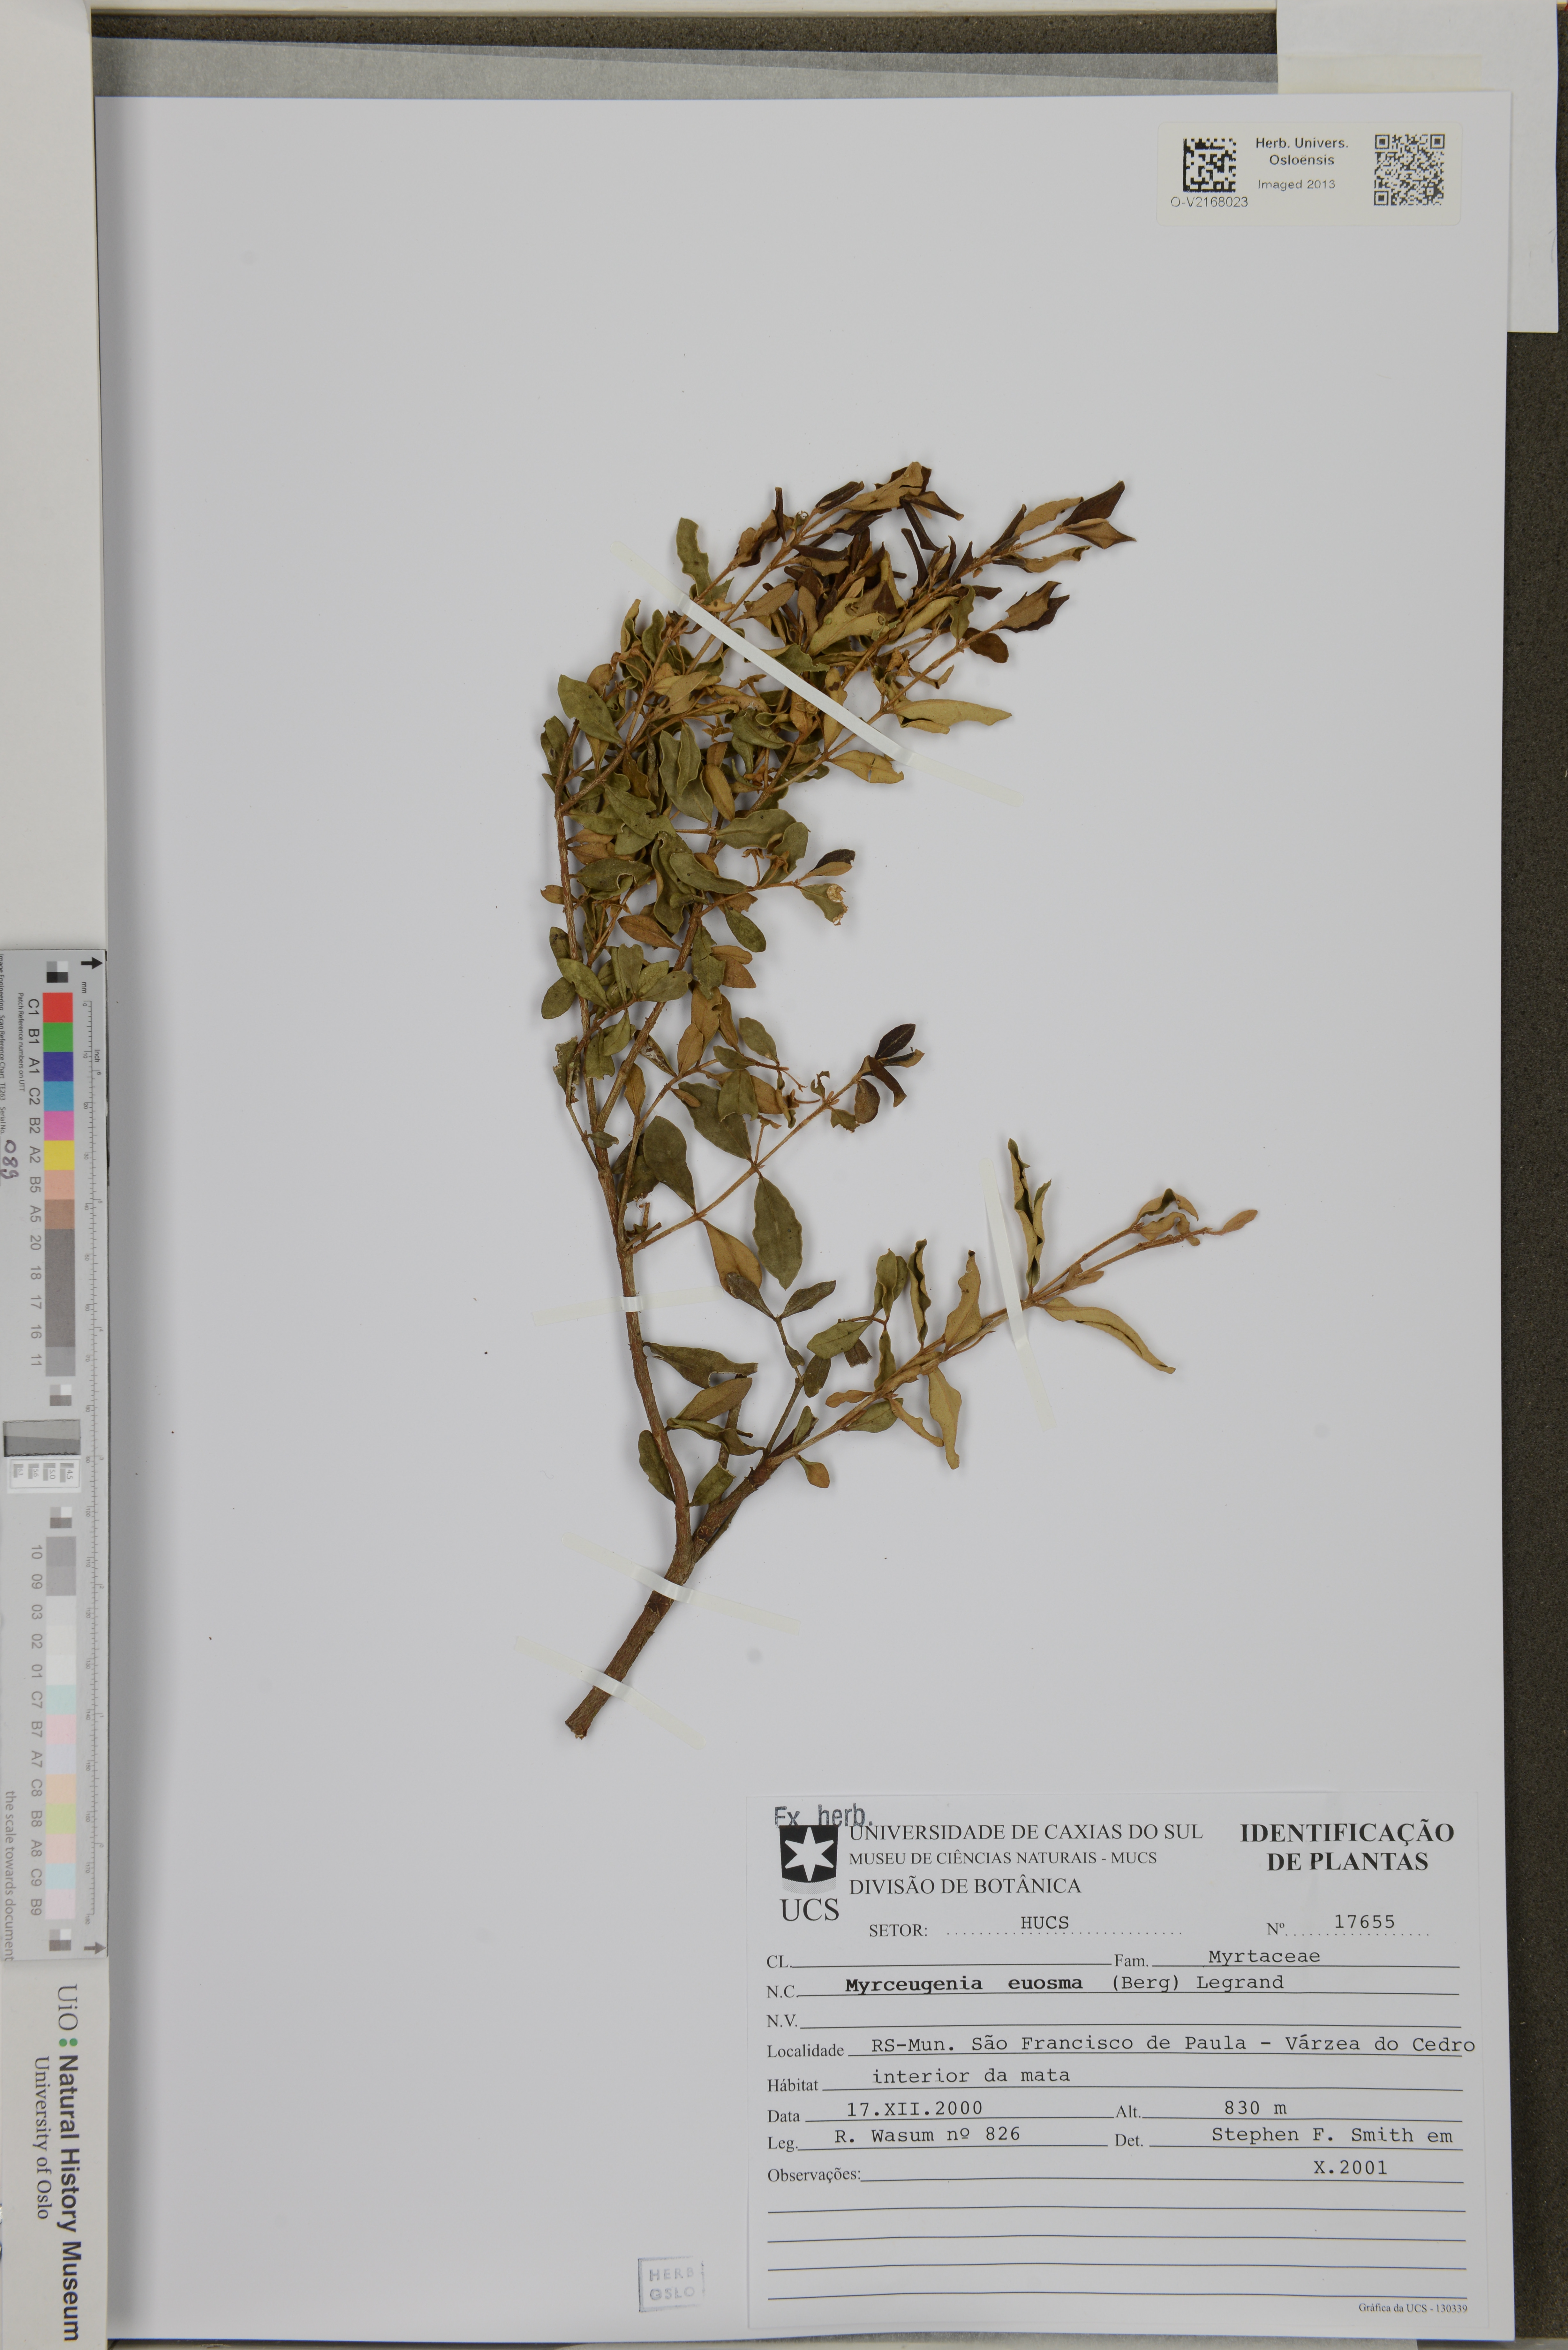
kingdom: Plantae
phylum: Tracheophyta
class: Magnoliopsida
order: Myrtales
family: Myrtaceae
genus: Myrceugenia
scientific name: Myrceugenia euosma
